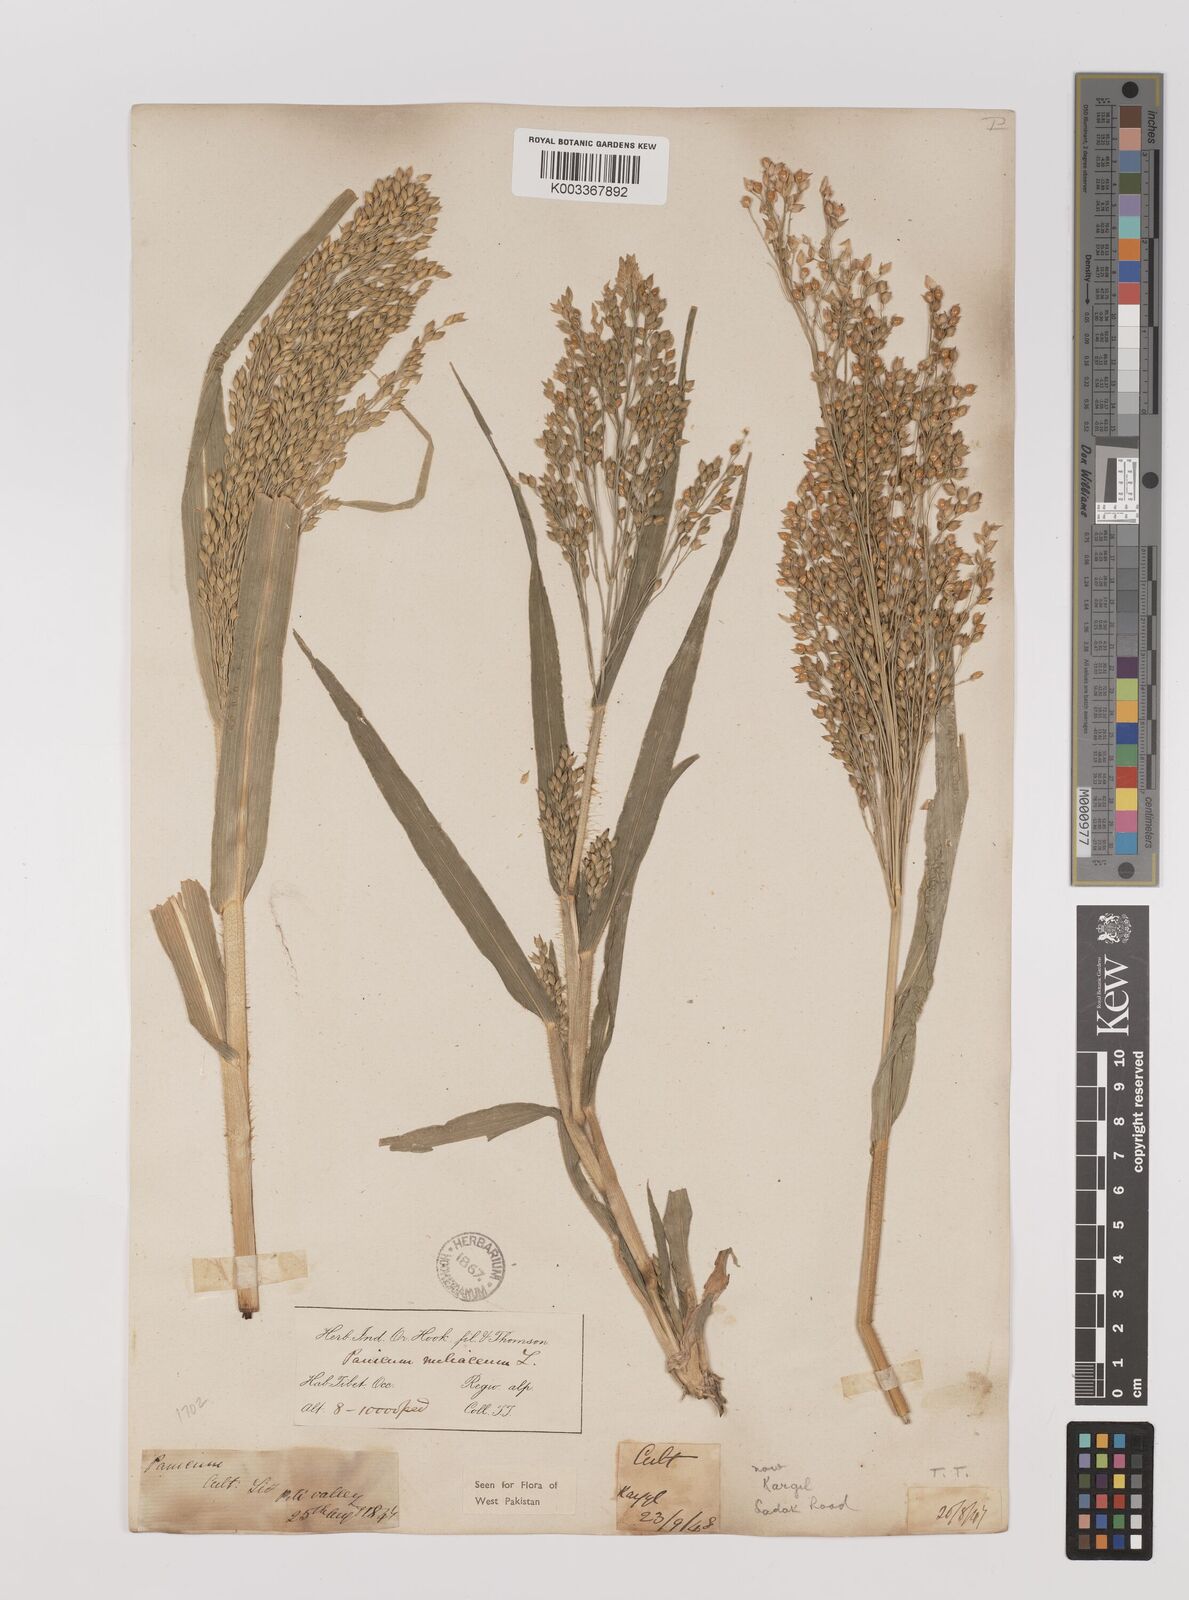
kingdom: Plantae
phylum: Tracheophyta
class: Liliopsida
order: Poales
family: Poaceae
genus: Panicum
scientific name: Panicum miliaceum
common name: Common millet
